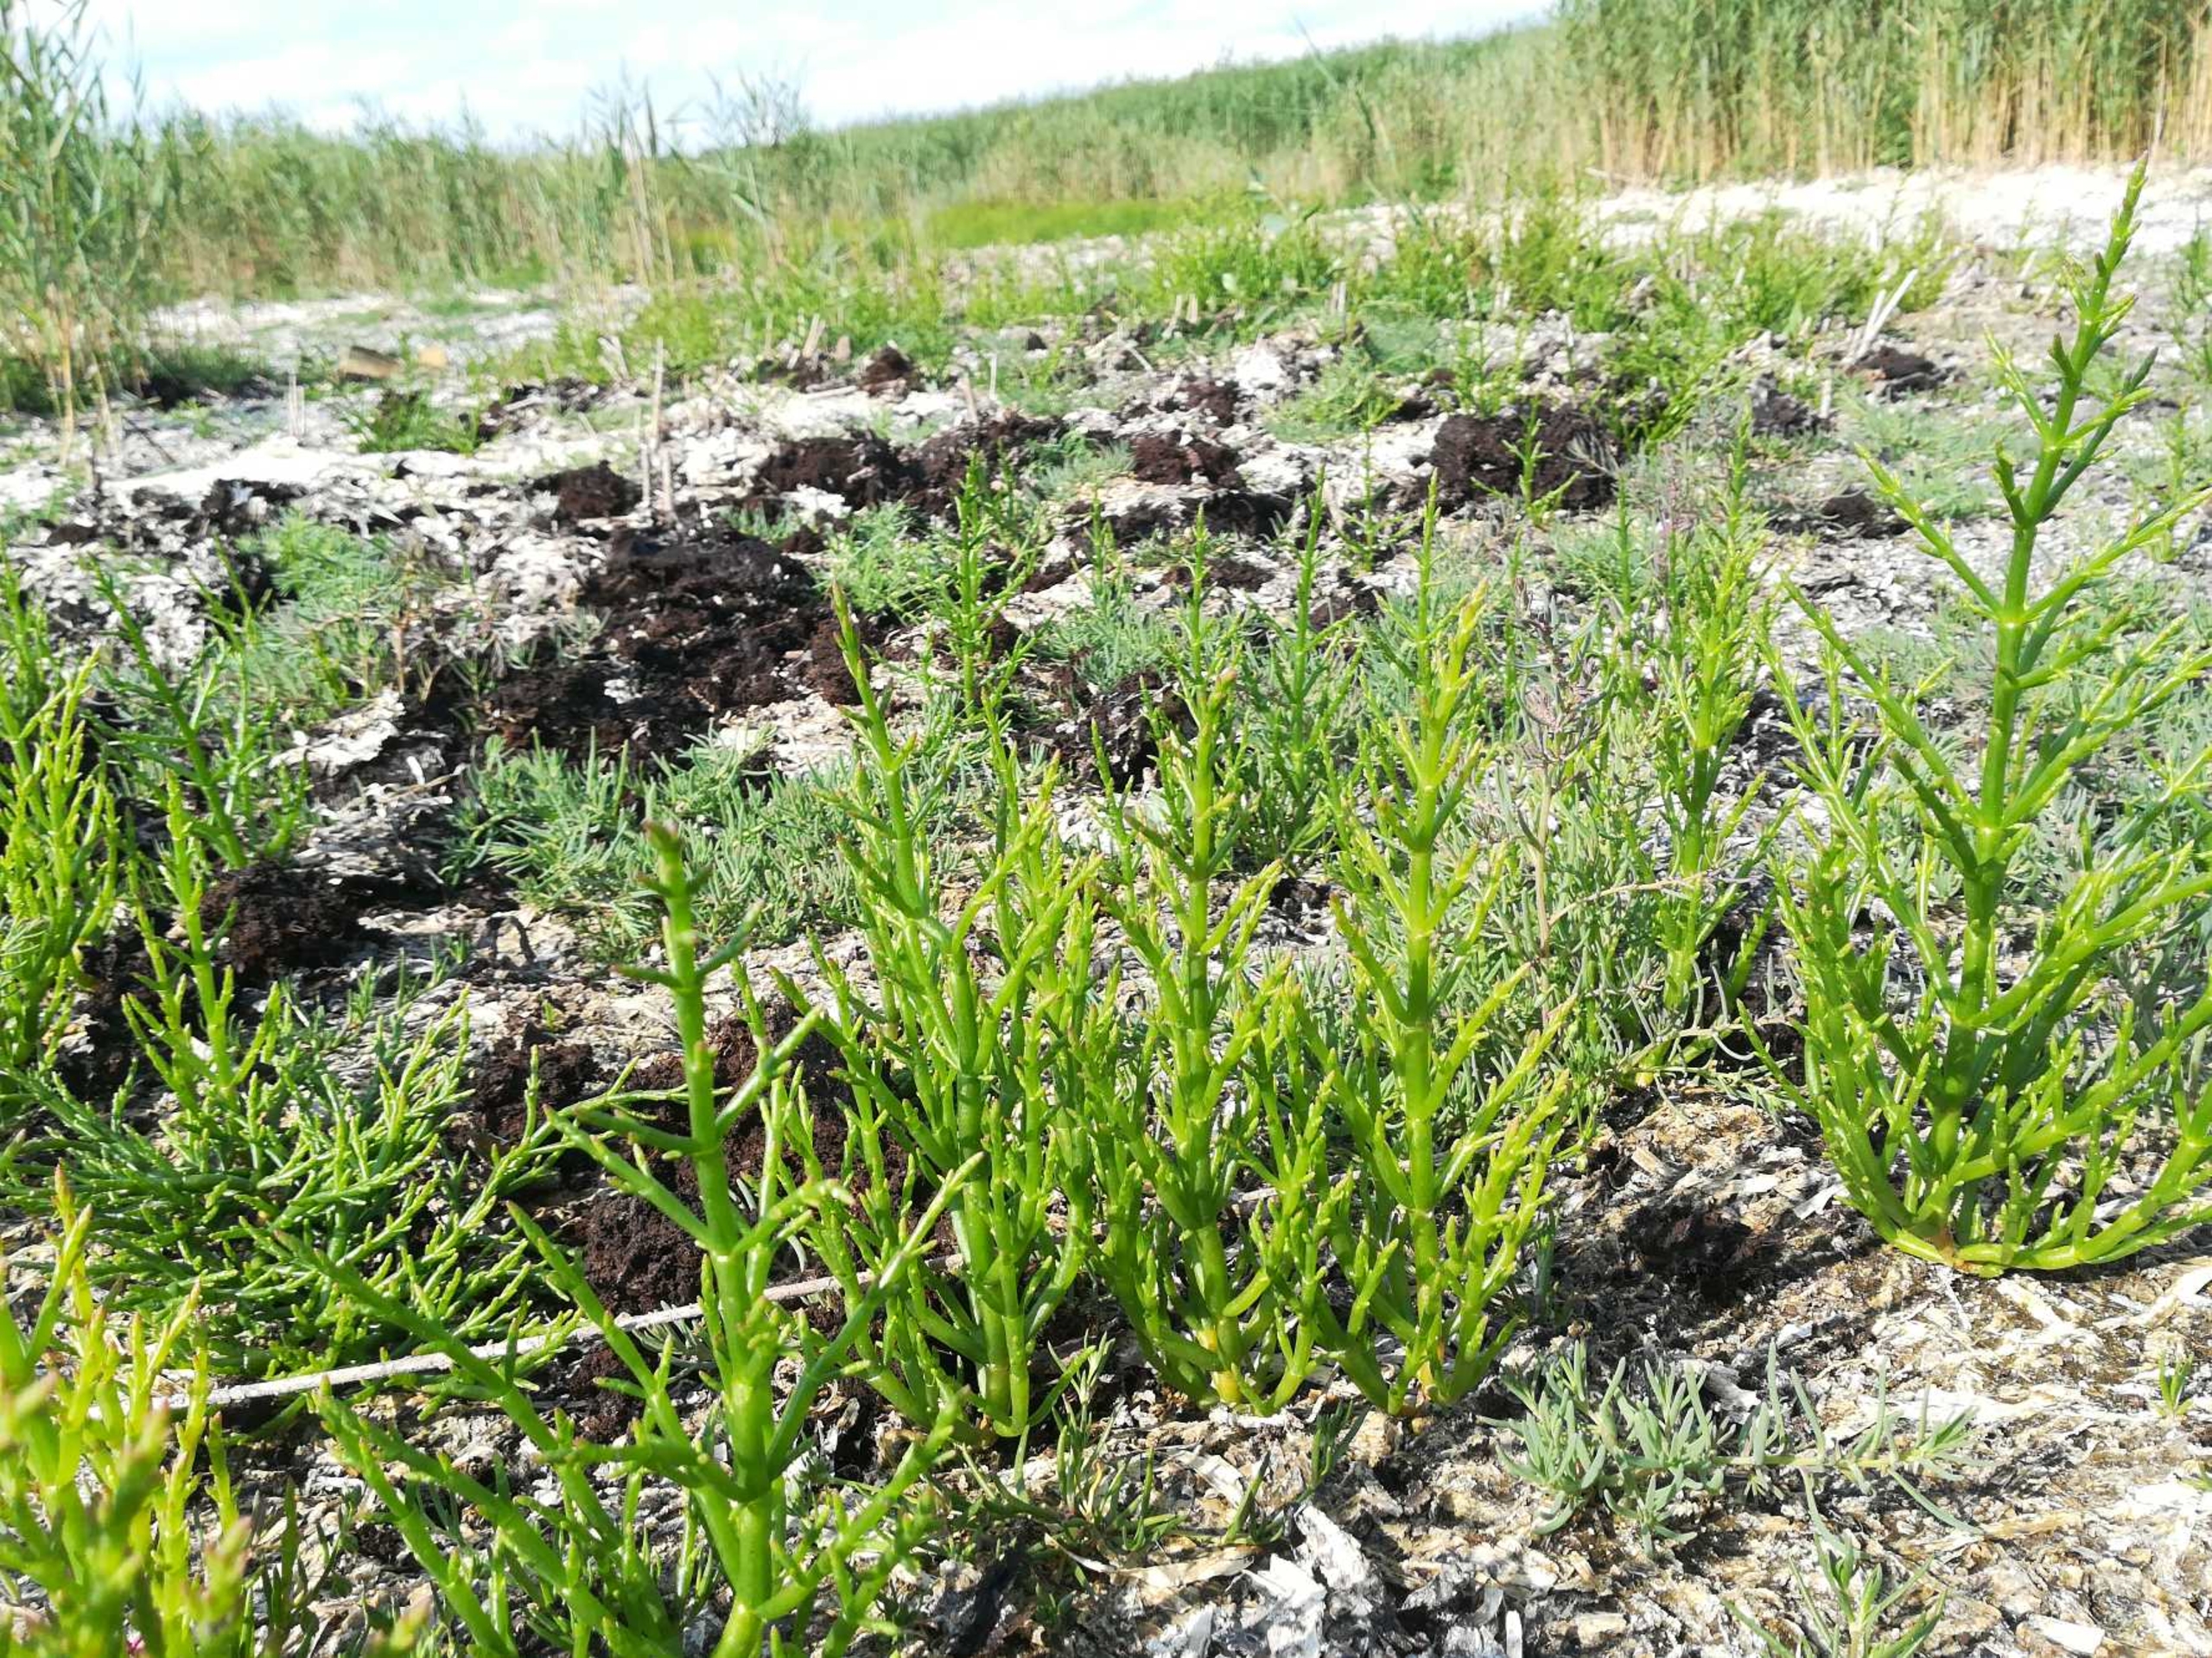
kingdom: Plantae
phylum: Tracheophyta
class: Magnoliopsida
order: Caryophyllales
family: Amaranthaceae
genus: Salicornia
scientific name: Salicornia europaea
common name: Almindelig salturt
